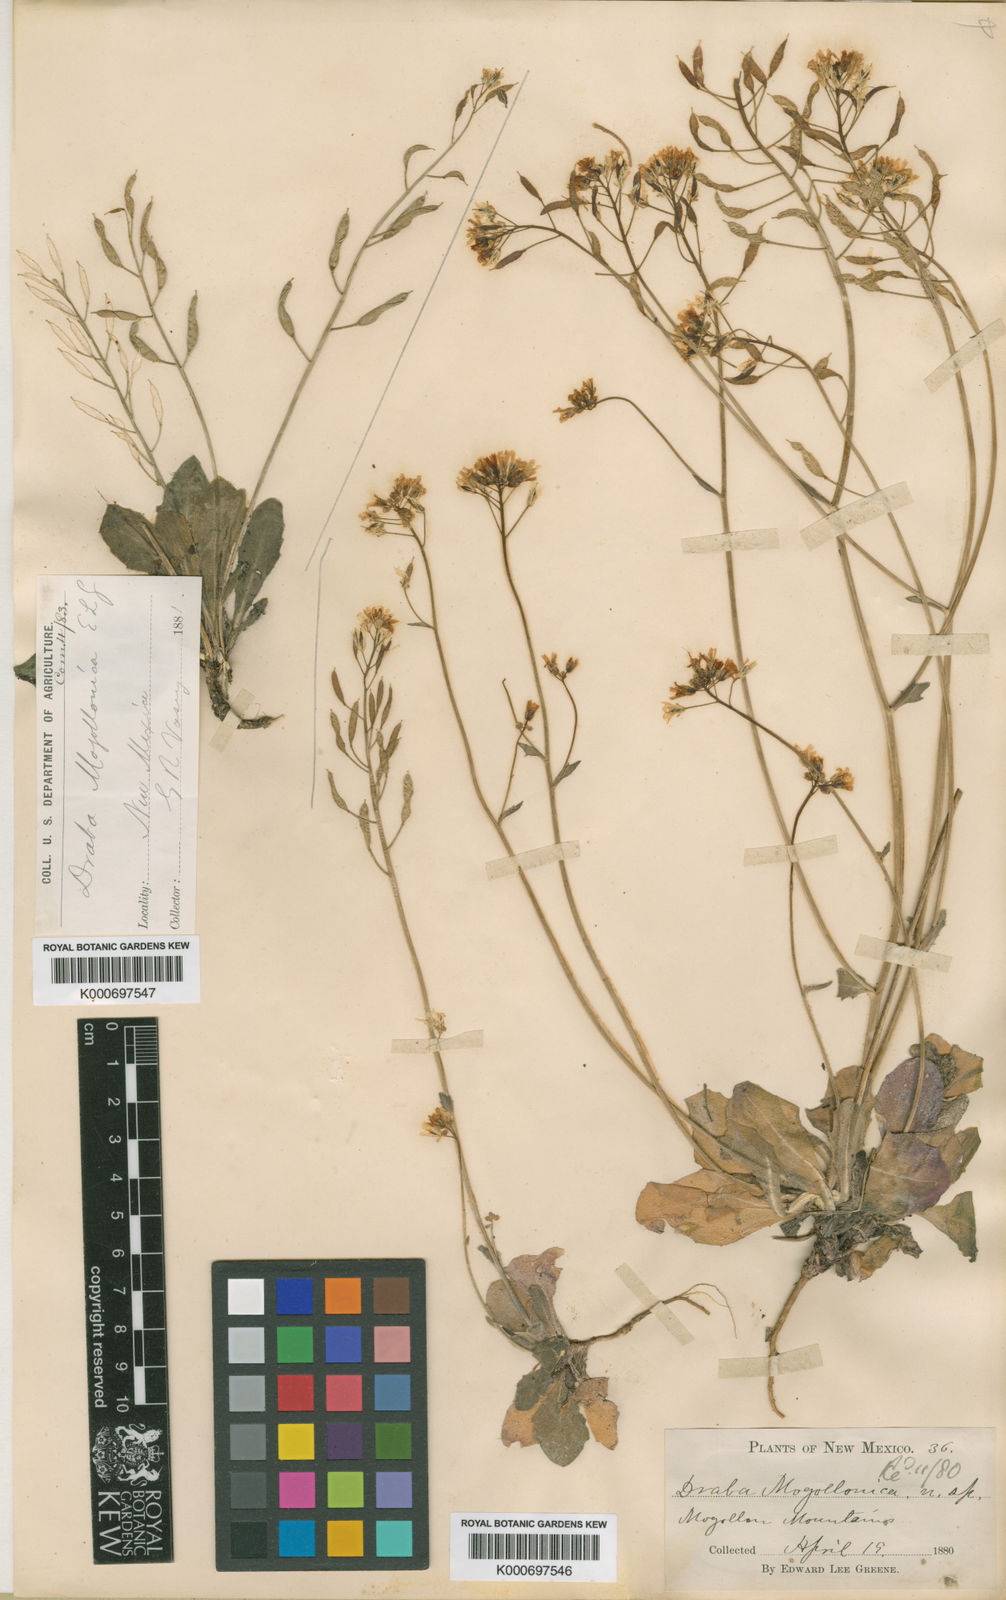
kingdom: Plantae
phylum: Tracheophyta
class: Magnoliopsida
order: Brassicales
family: Brassicaceae
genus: Draba
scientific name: Draba mogollonica
